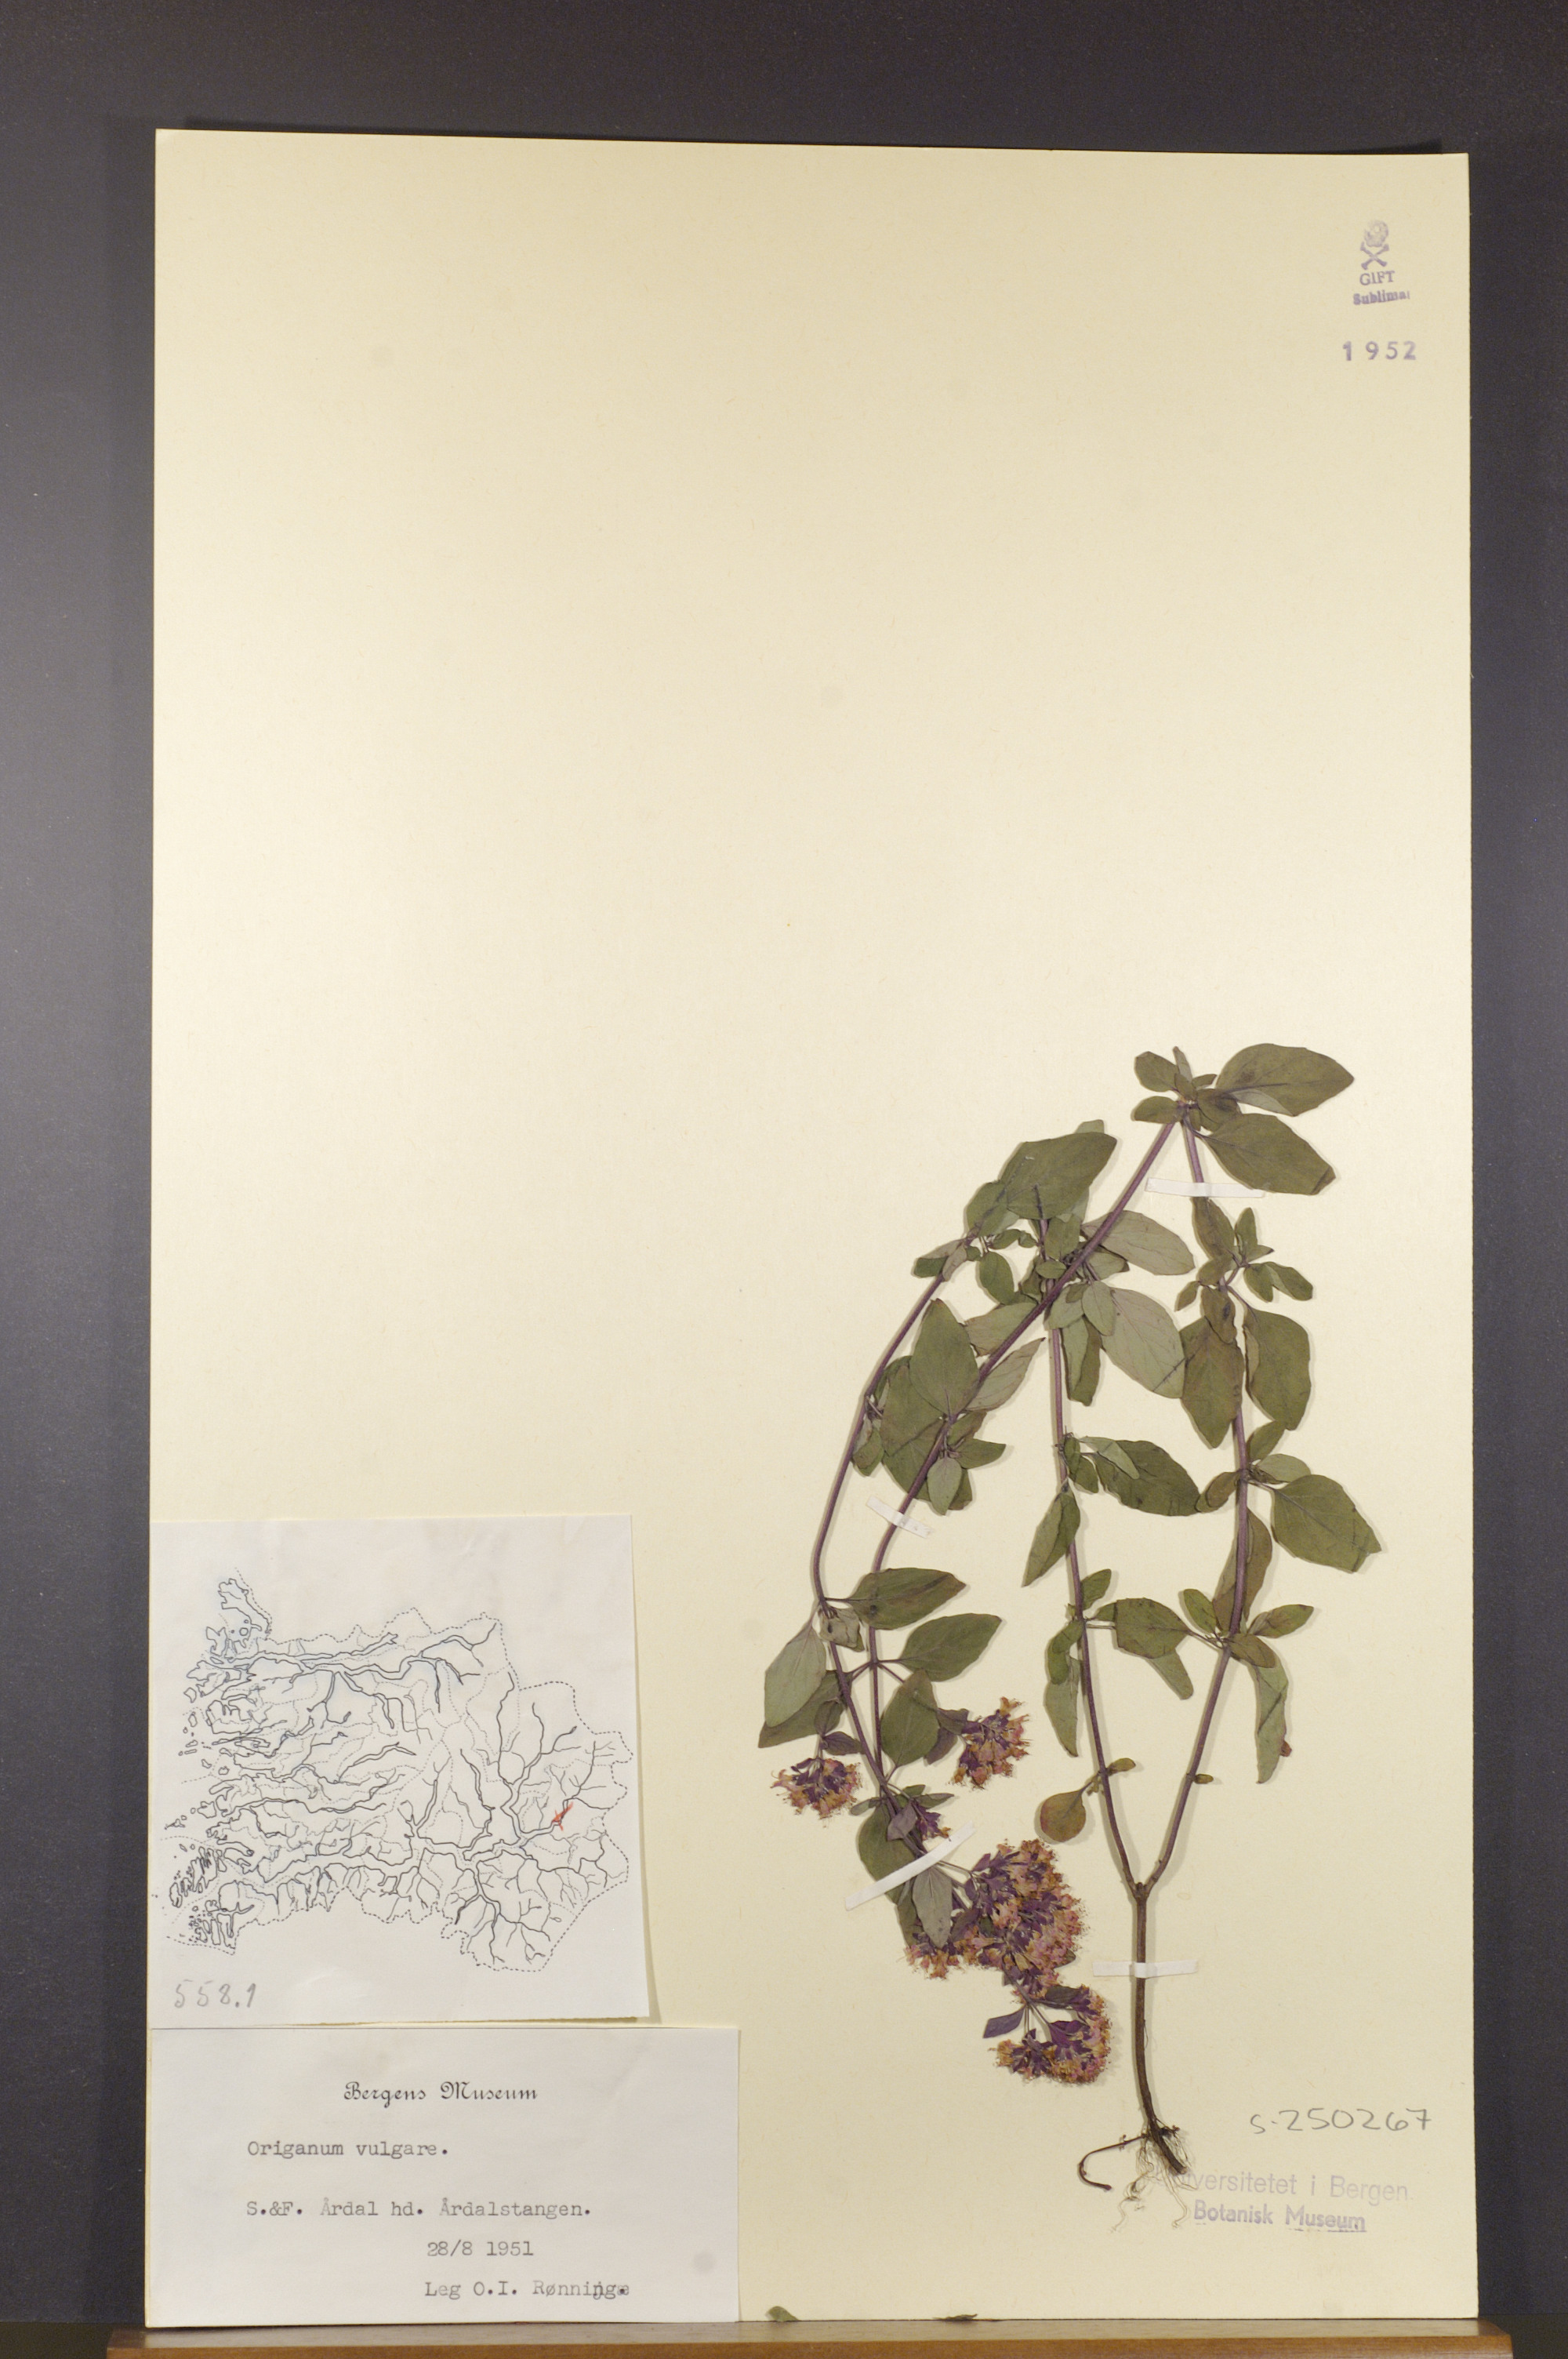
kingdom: Plantae
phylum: Tracheophyta
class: Magnoliopsida
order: Lamiales
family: Lamiaceae
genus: Origanum
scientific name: Origanum vulgare
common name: Wild marjoram
